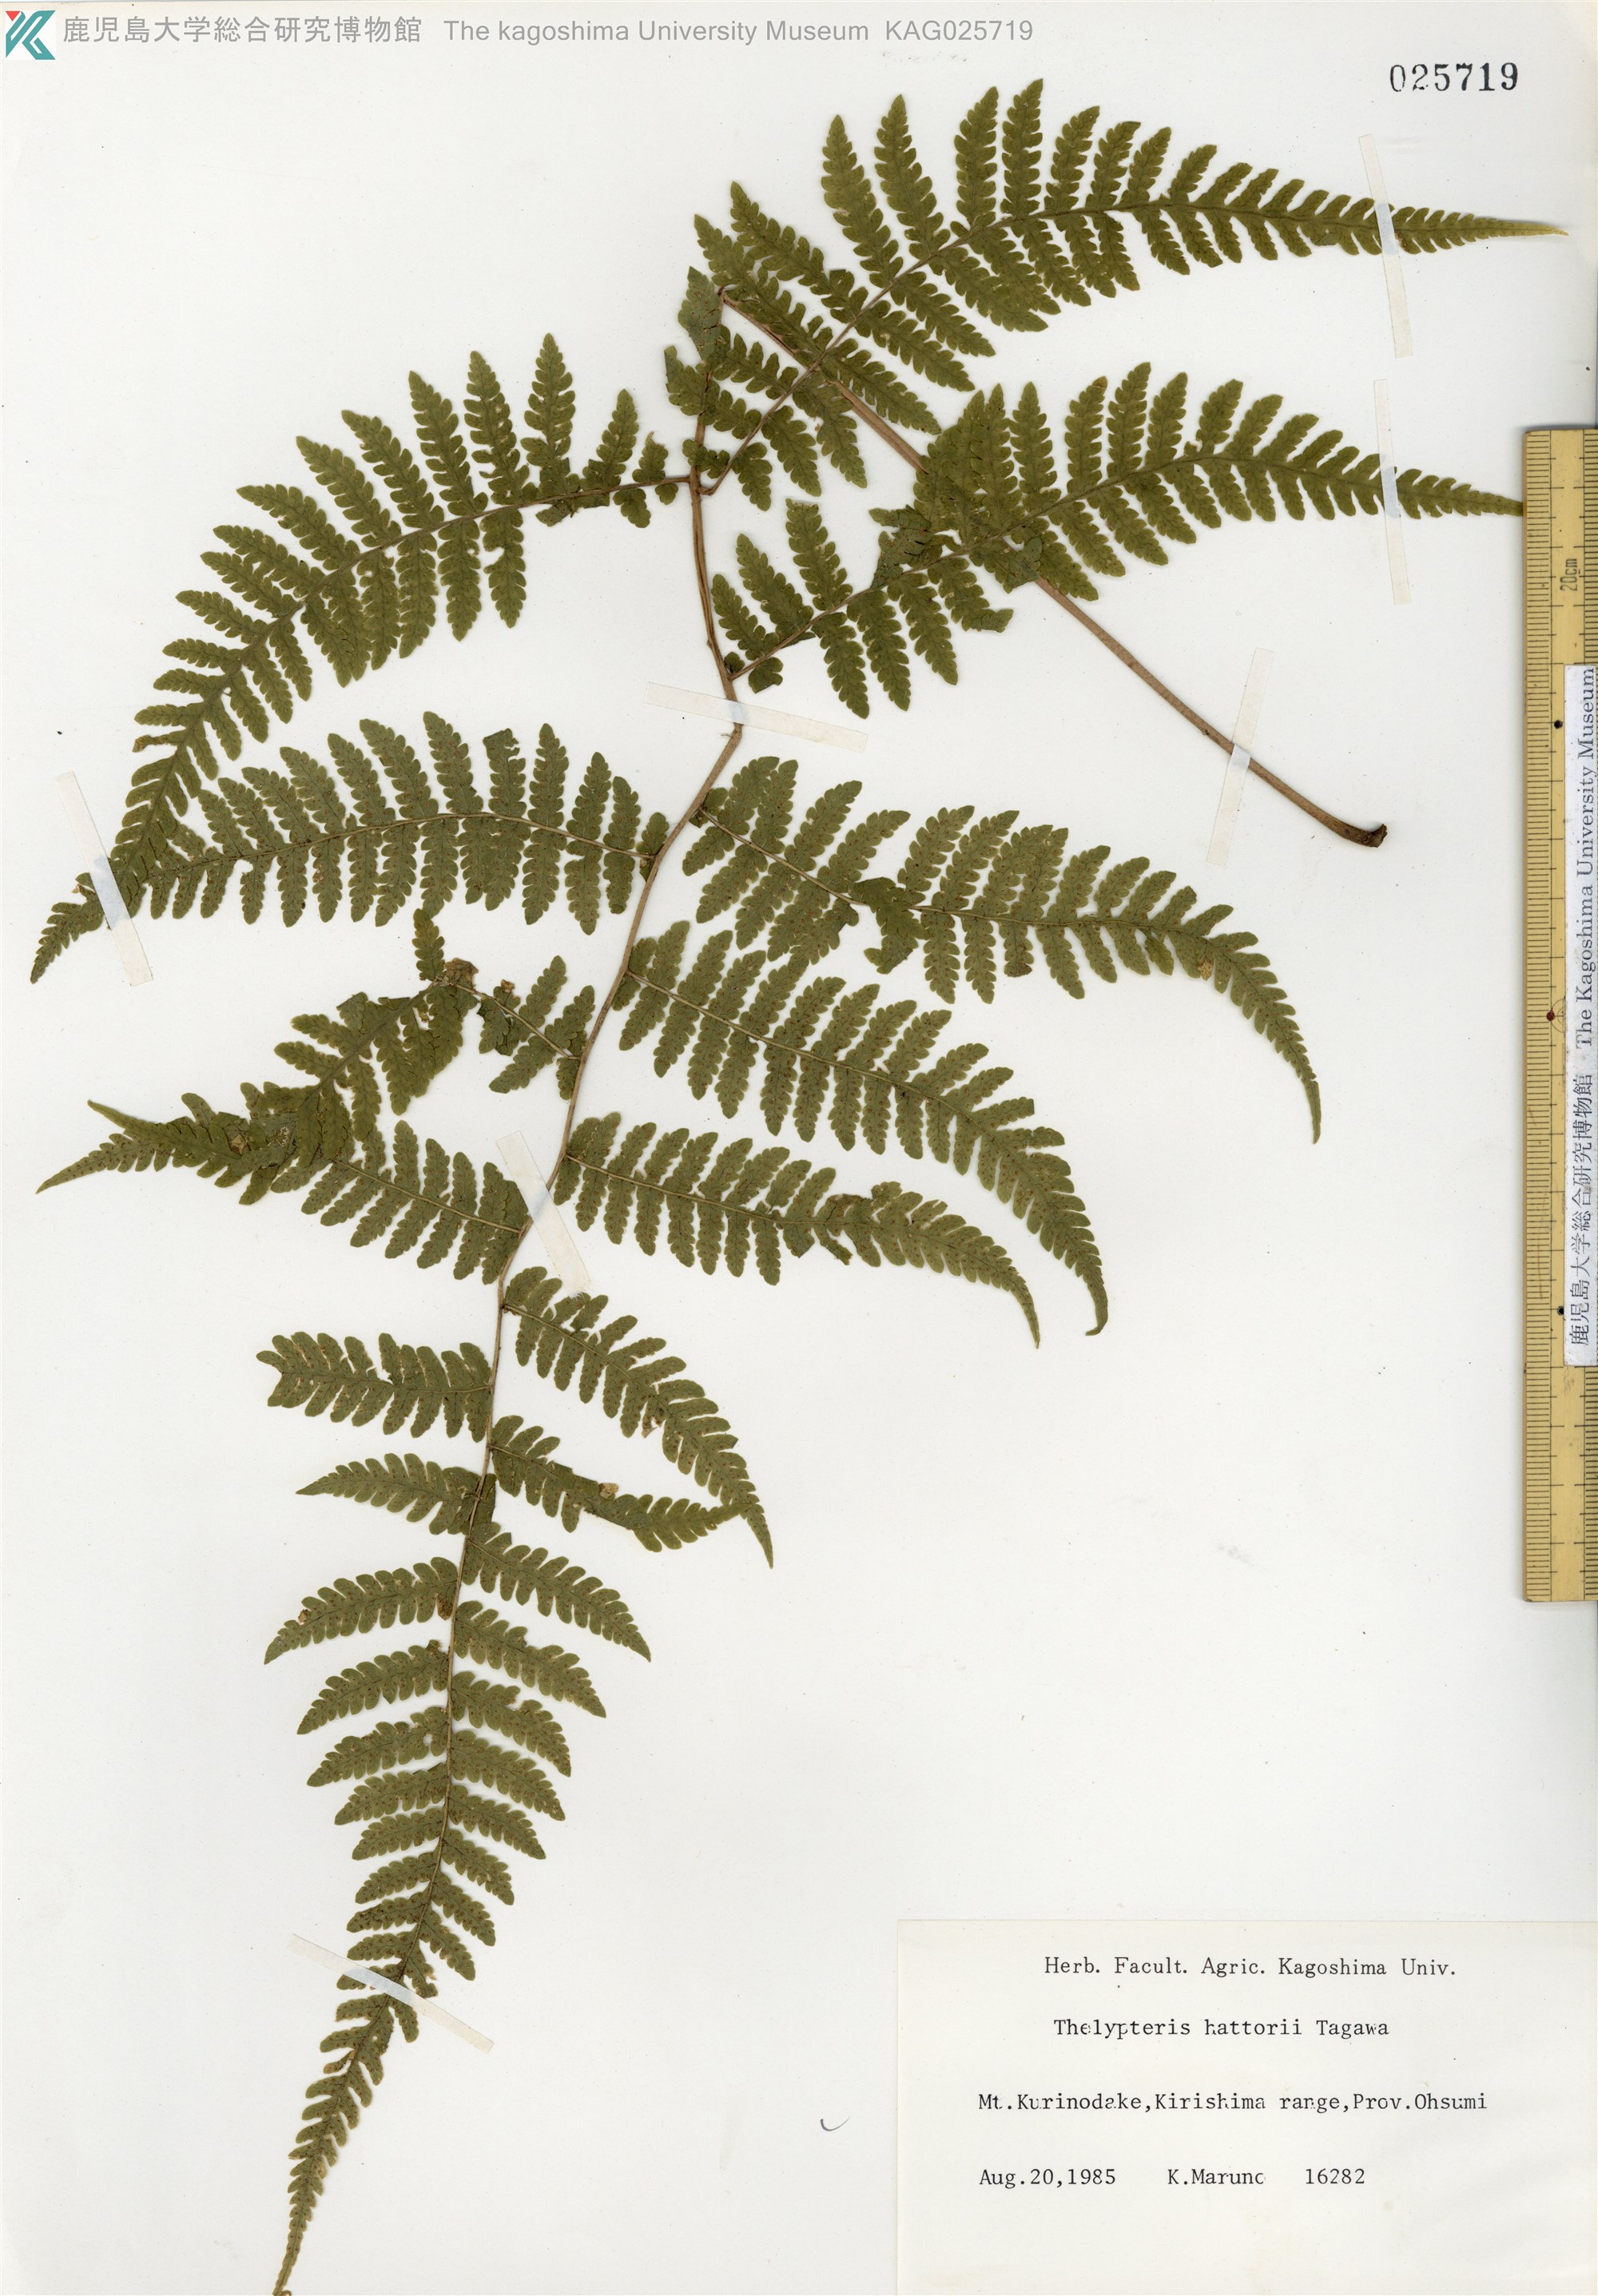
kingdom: Plantae
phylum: Tracheophyta
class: Polypodiopsida
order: Polypodiales
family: Thelypteridaceae
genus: Metathelypteris
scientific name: Metathelypteris hattori
